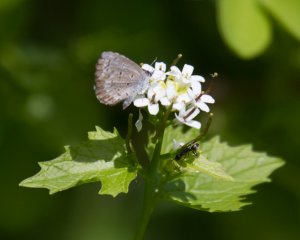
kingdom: Animalia
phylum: Arthropoda
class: Insecta
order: Lepidoptera
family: Lycaenidae
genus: Celastrina
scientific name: Celastrina ladon
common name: Spring Azure
